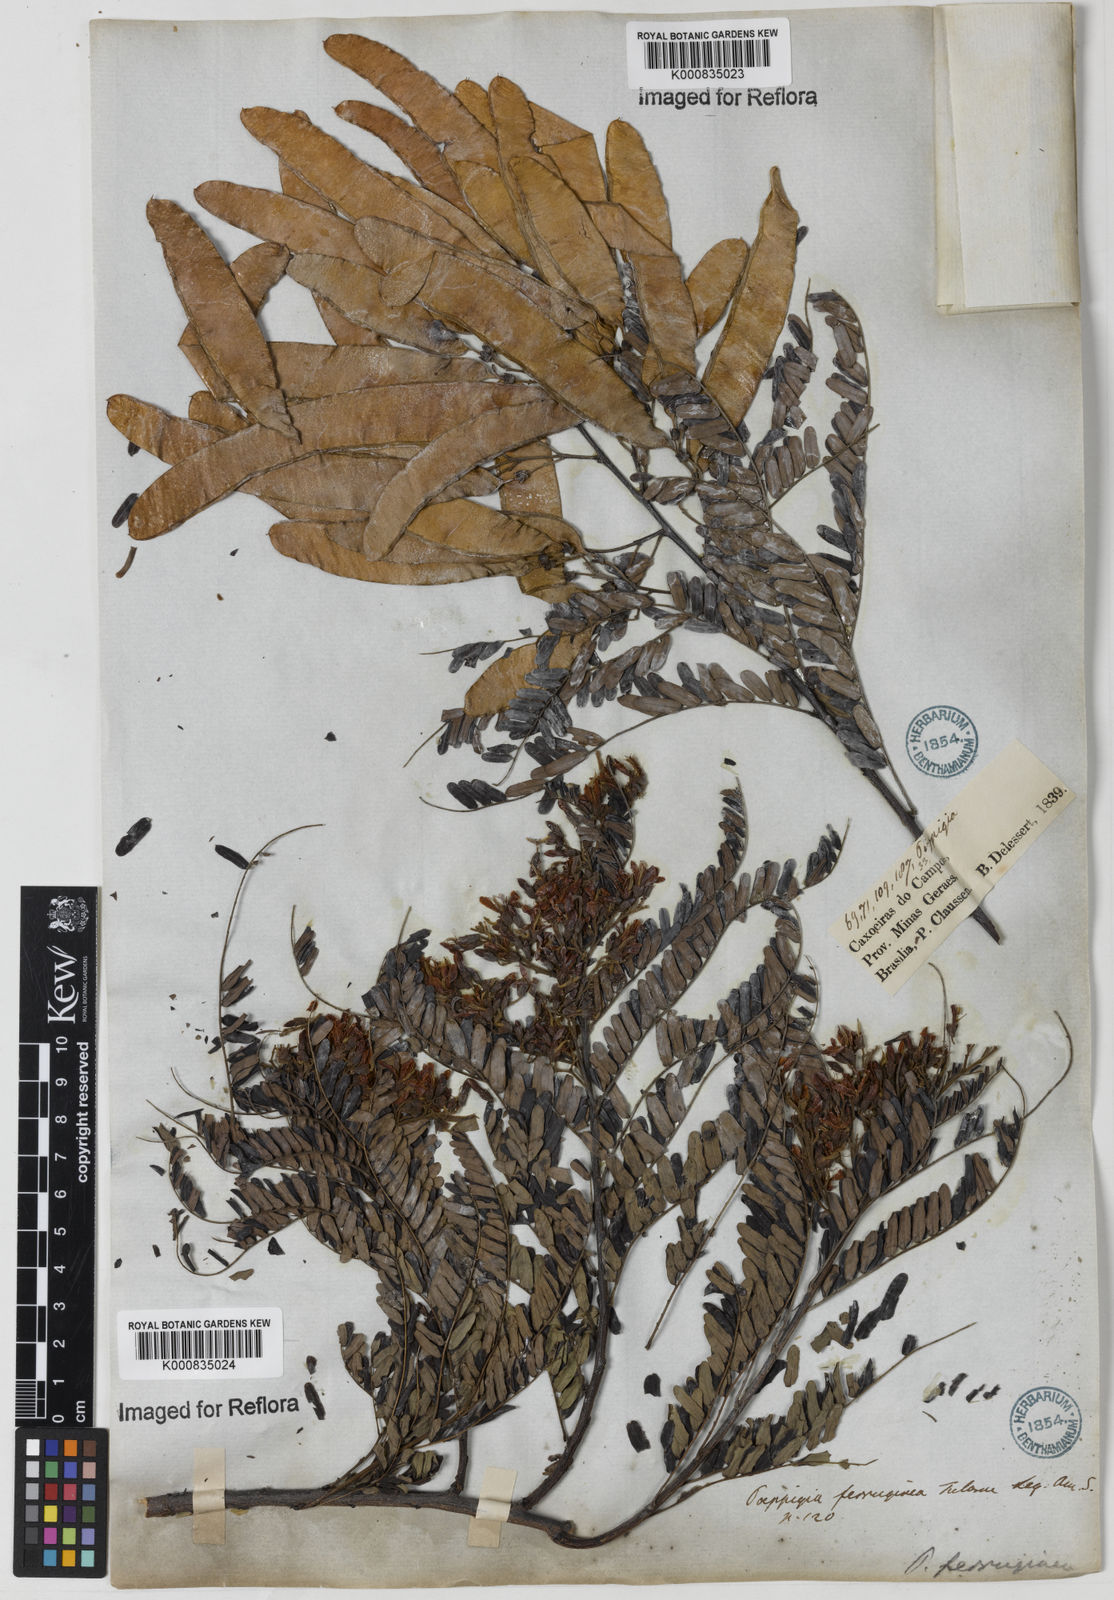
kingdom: Plantae
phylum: Tracheophyta
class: Magnoliopsida
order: Fabales
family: Fabaceae
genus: Poeppigia
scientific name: Poeppigia
